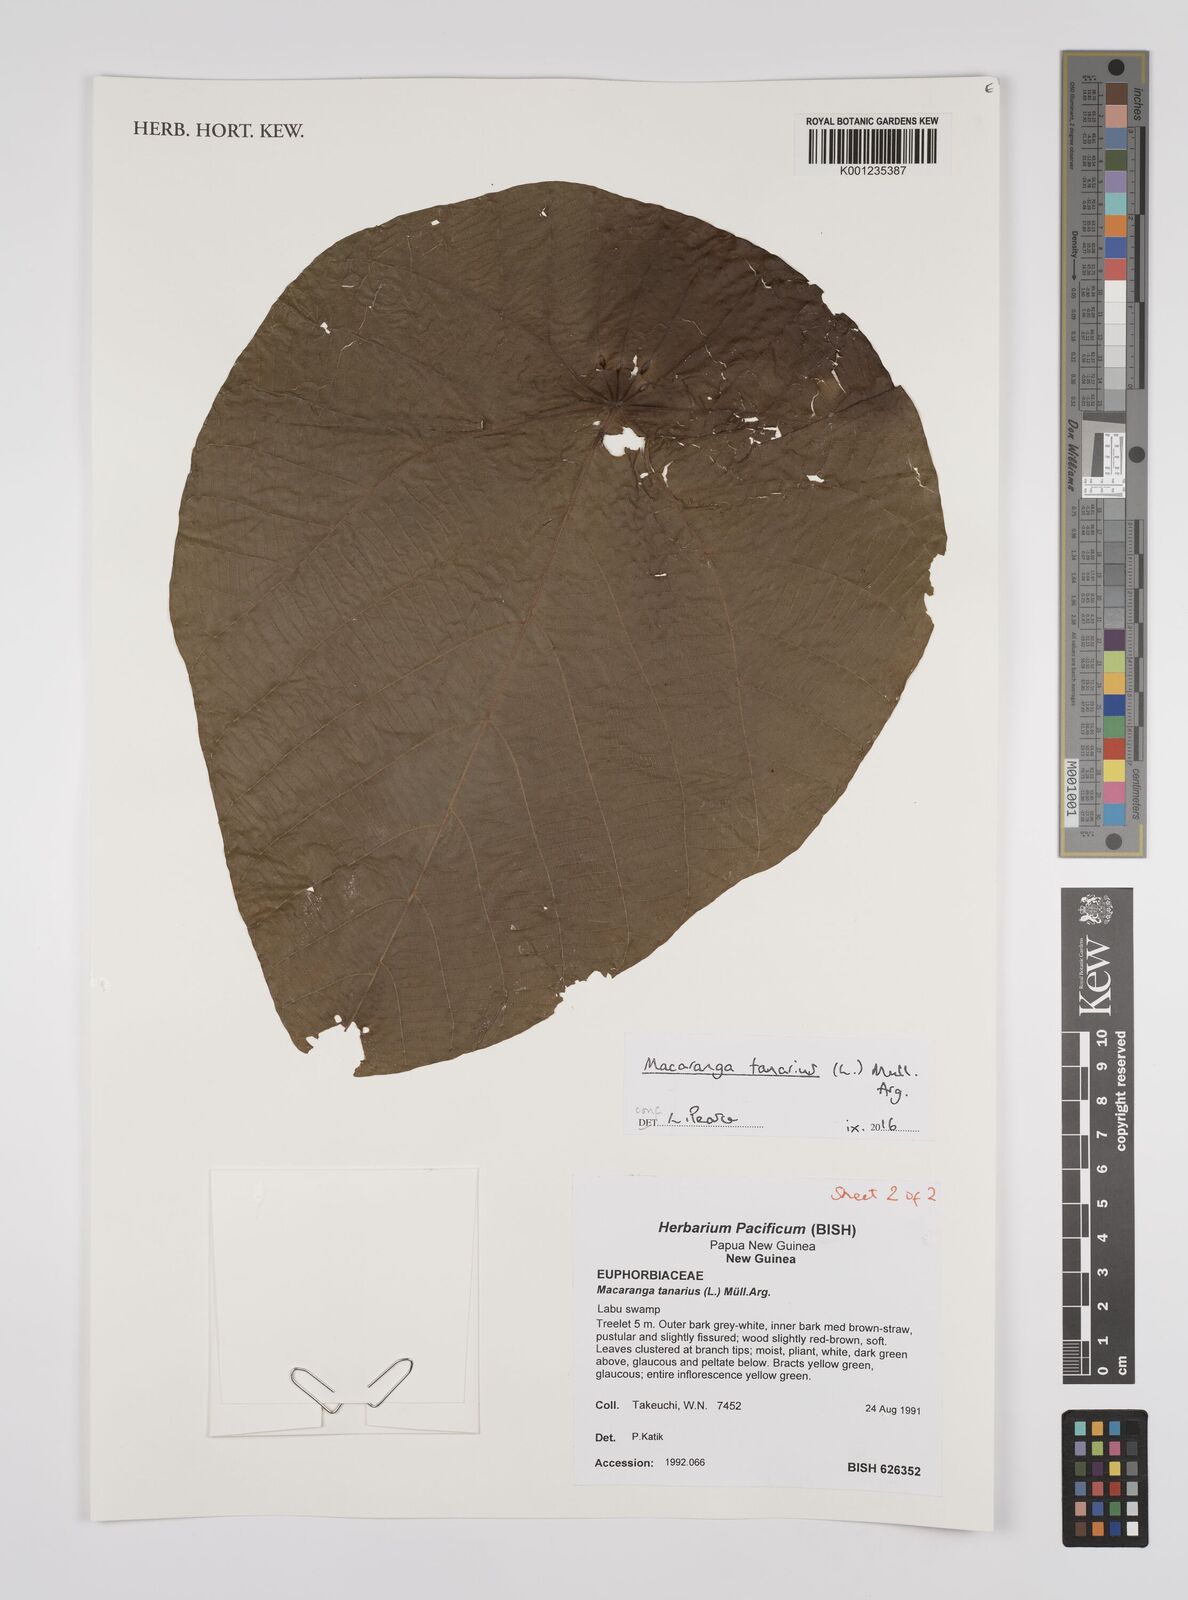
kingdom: Plantae
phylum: Tracheophyta
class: Magnoliopsida
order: Malpighiales
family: Euphorbiaceae
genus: Macaranga
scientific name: Macaranga tanarius
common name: Parasol leaf tree
